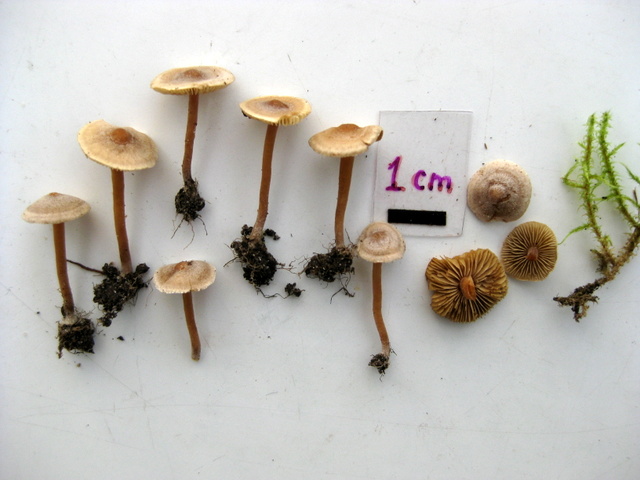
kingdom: Fungi
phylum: Basidiomycota
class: Agaricomycetes
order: Agaricales
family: Inocybaceae
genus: Inocybe
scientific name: Inocybe petiginosa
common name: liden trævlhat
